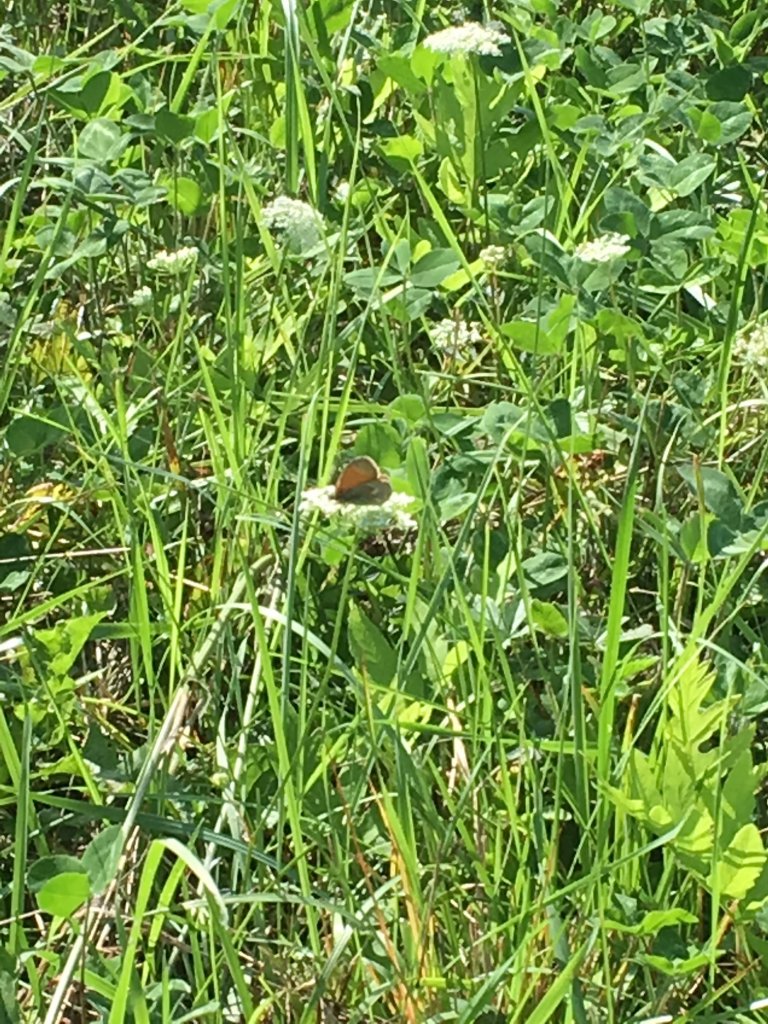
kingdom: Animalia
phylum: Arthropoda
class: Insecta
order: Lepidoptera
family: Nymphalidae
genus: Coenonympha
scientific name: Coenonympha tullia
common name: Large Heath
